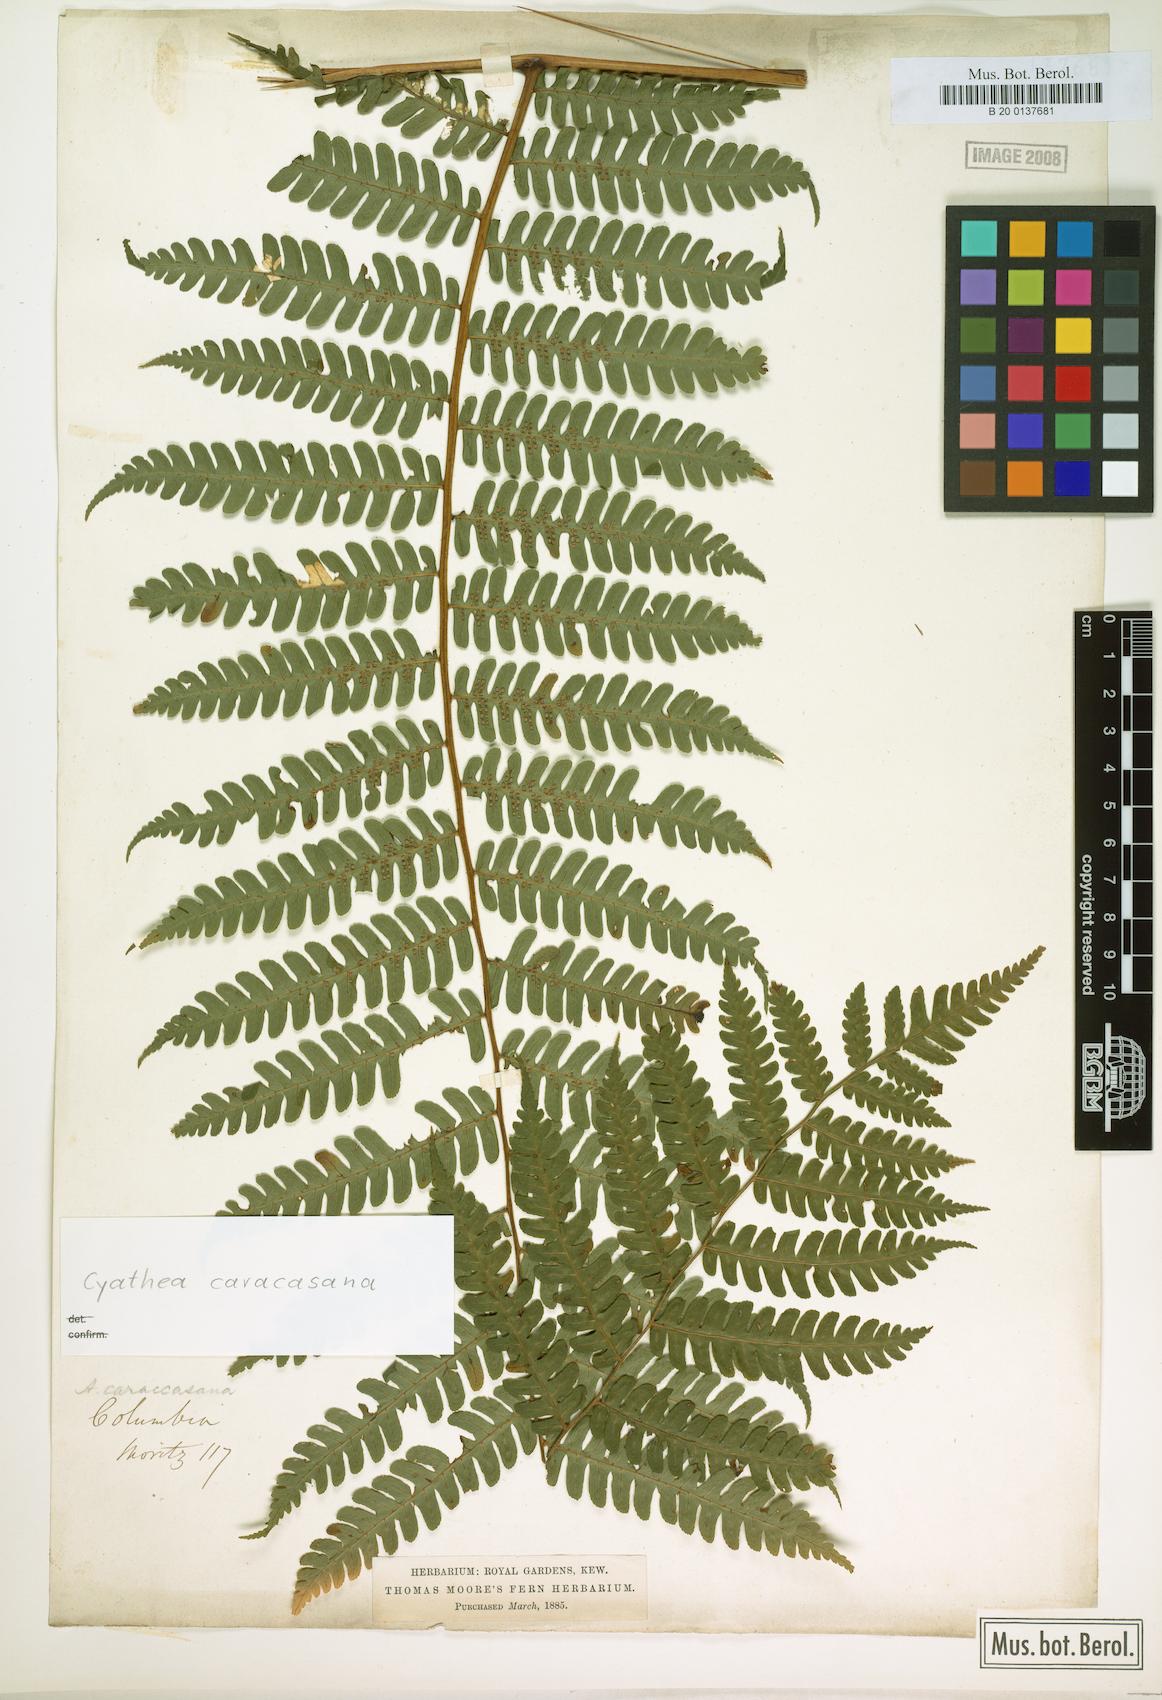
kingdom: Plantae
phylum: Tracheophyta
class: Polypodiopsida
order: Cyatheales
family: Cyatheaceae
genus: Cyathea
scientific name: Cyathea caracasana
